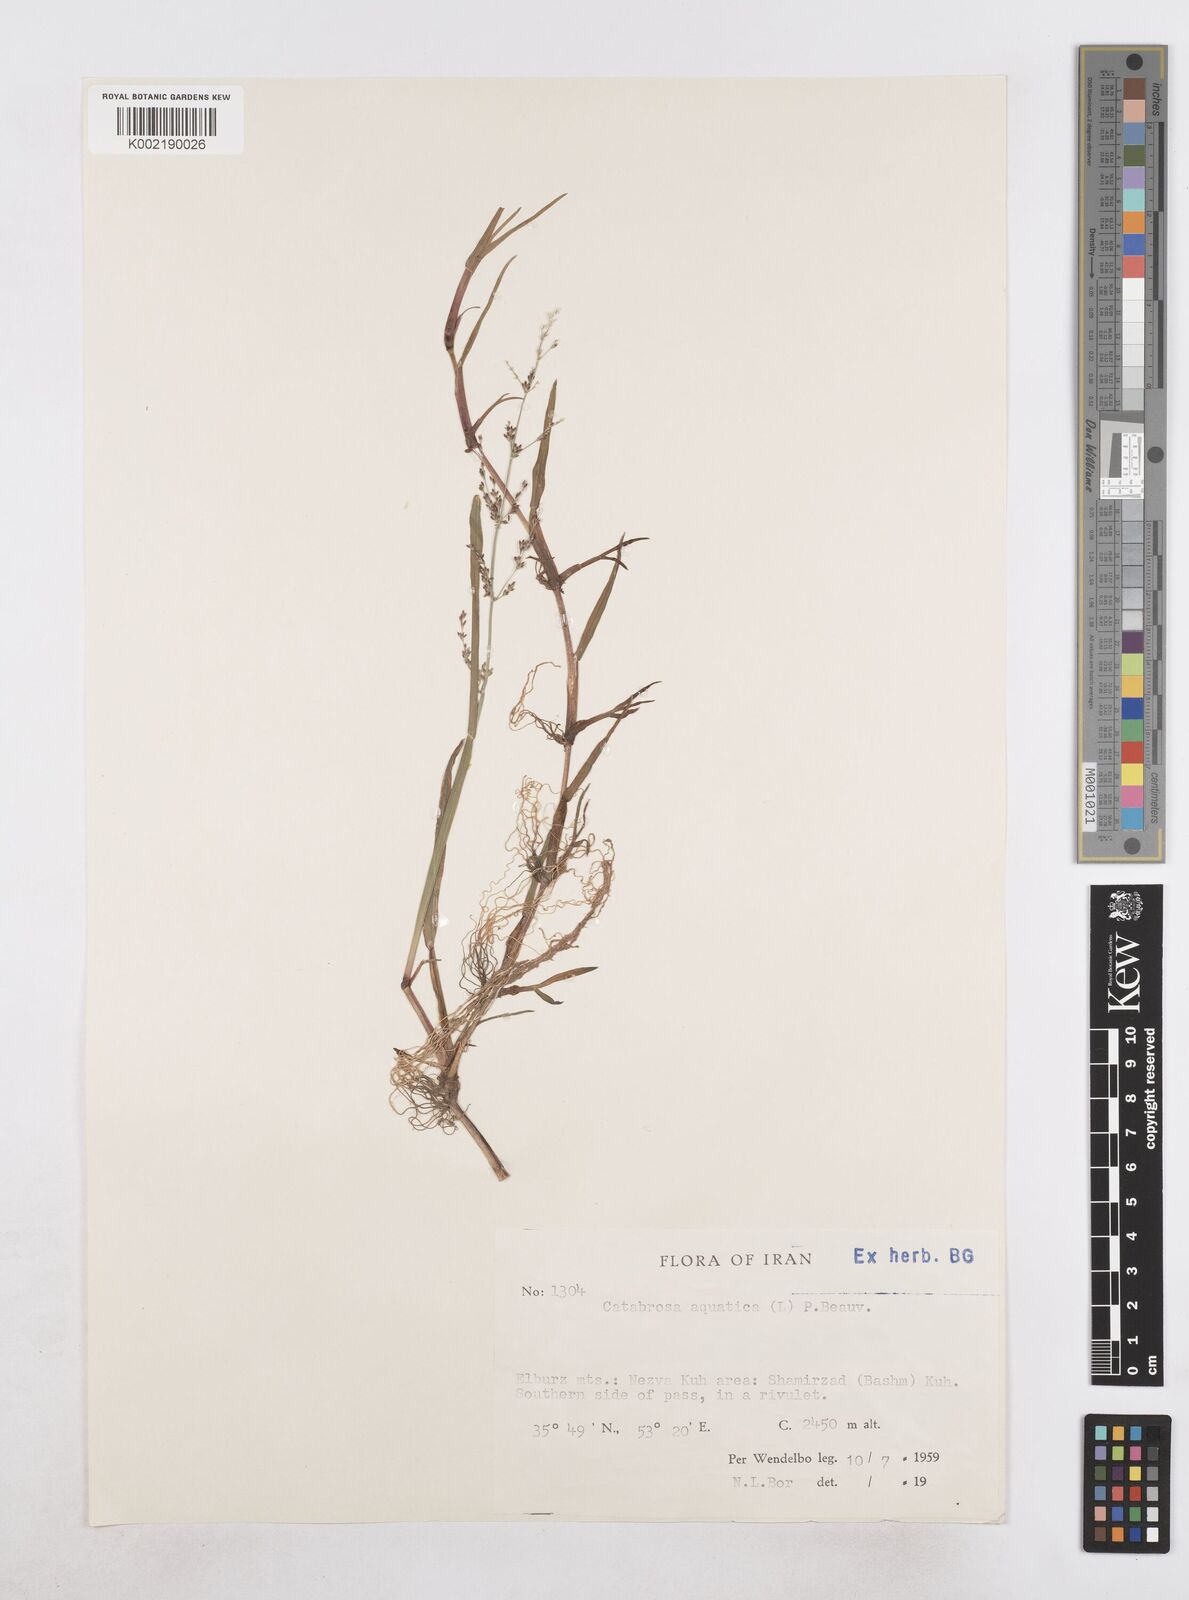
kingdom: Plantae
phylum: Tracheophyta
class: Liliopsida
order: Poales
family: Poaceae
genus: Catabrosa
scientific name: Catabrosa aquatica
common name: Whorl-grass
